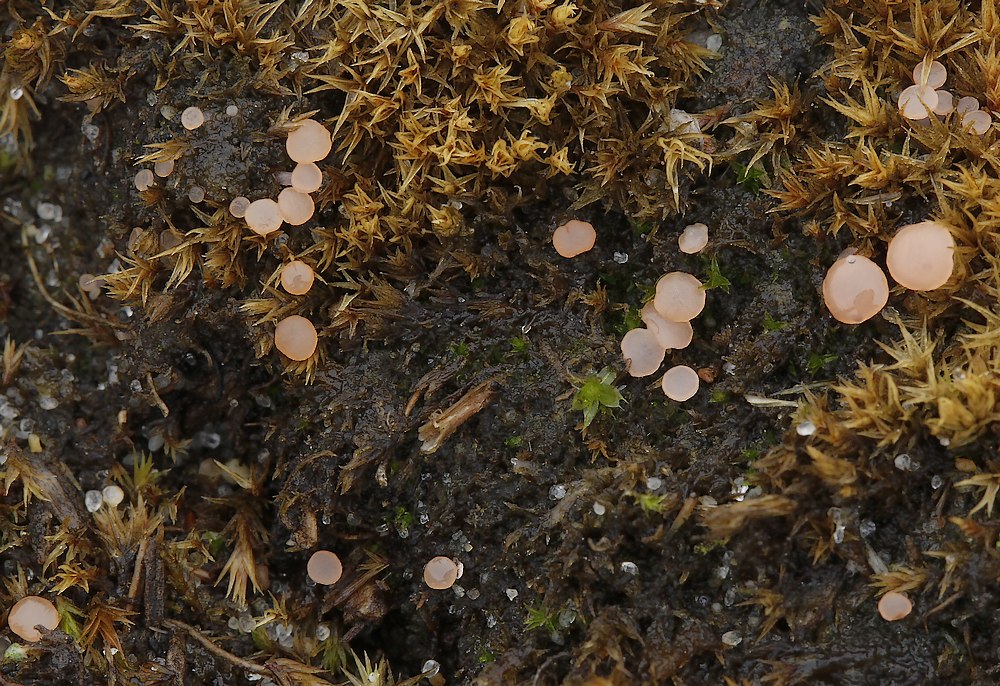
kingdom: Fungi
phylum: Ascomycota
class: Leotiomycetes
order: Helotiales
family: Hyaloscyphaceae
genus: Roseodiscus
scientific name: Roseodiscus formosus
